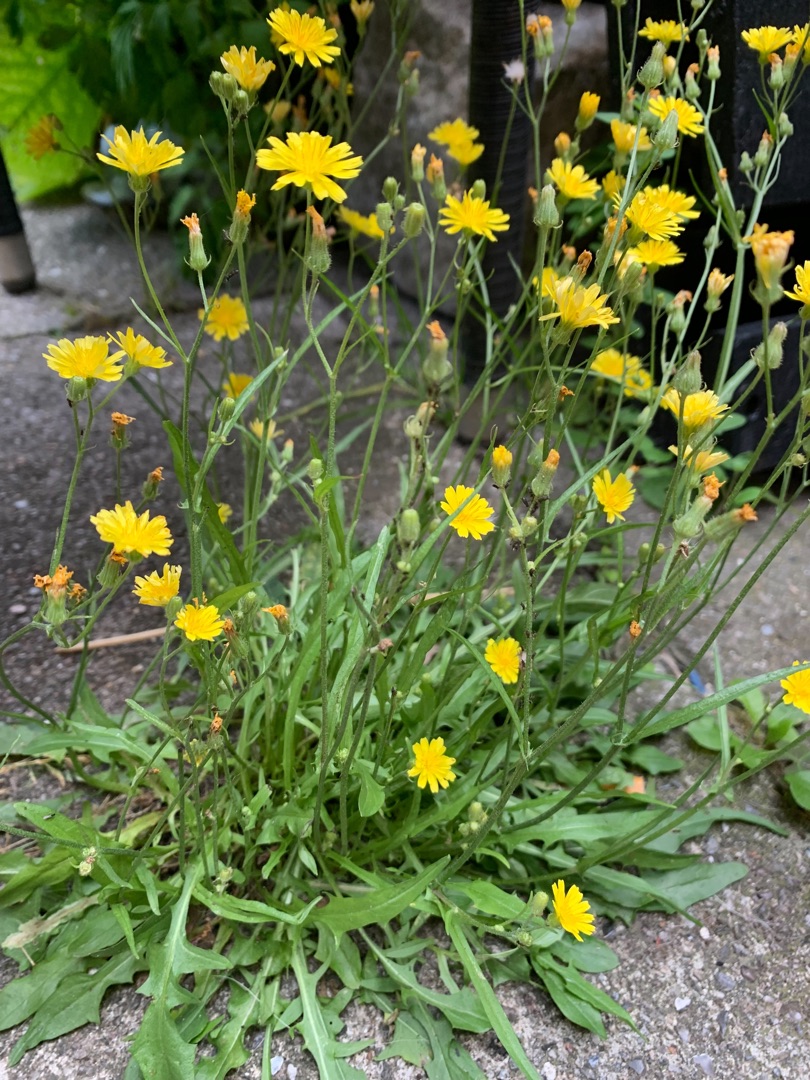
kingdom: Plantae
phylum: Tracheophyta
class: Magnoliopsida
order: Asterales
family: Asteraceae
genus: Crepis
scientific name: Crepis capillaris
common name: Grøn høgeskæg
